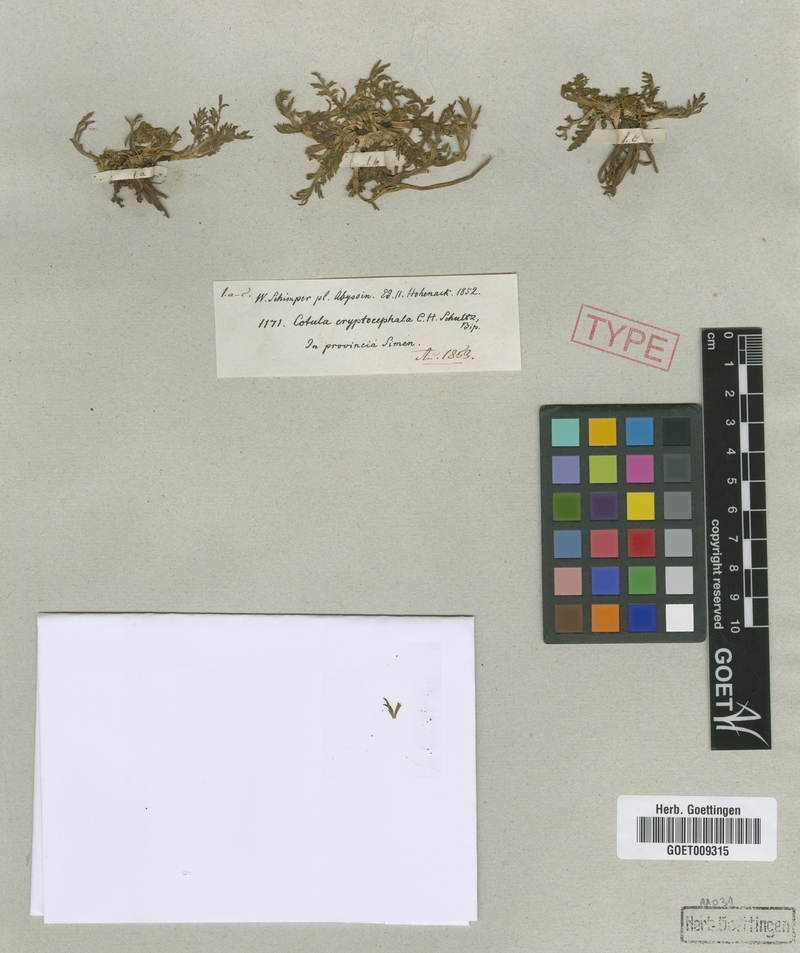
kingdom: Plantae
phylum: Tracheophyta
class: Magnoliopsida
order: Asterales
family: Asteraceae
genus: Cotula
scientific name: Cotula cryptocephala
